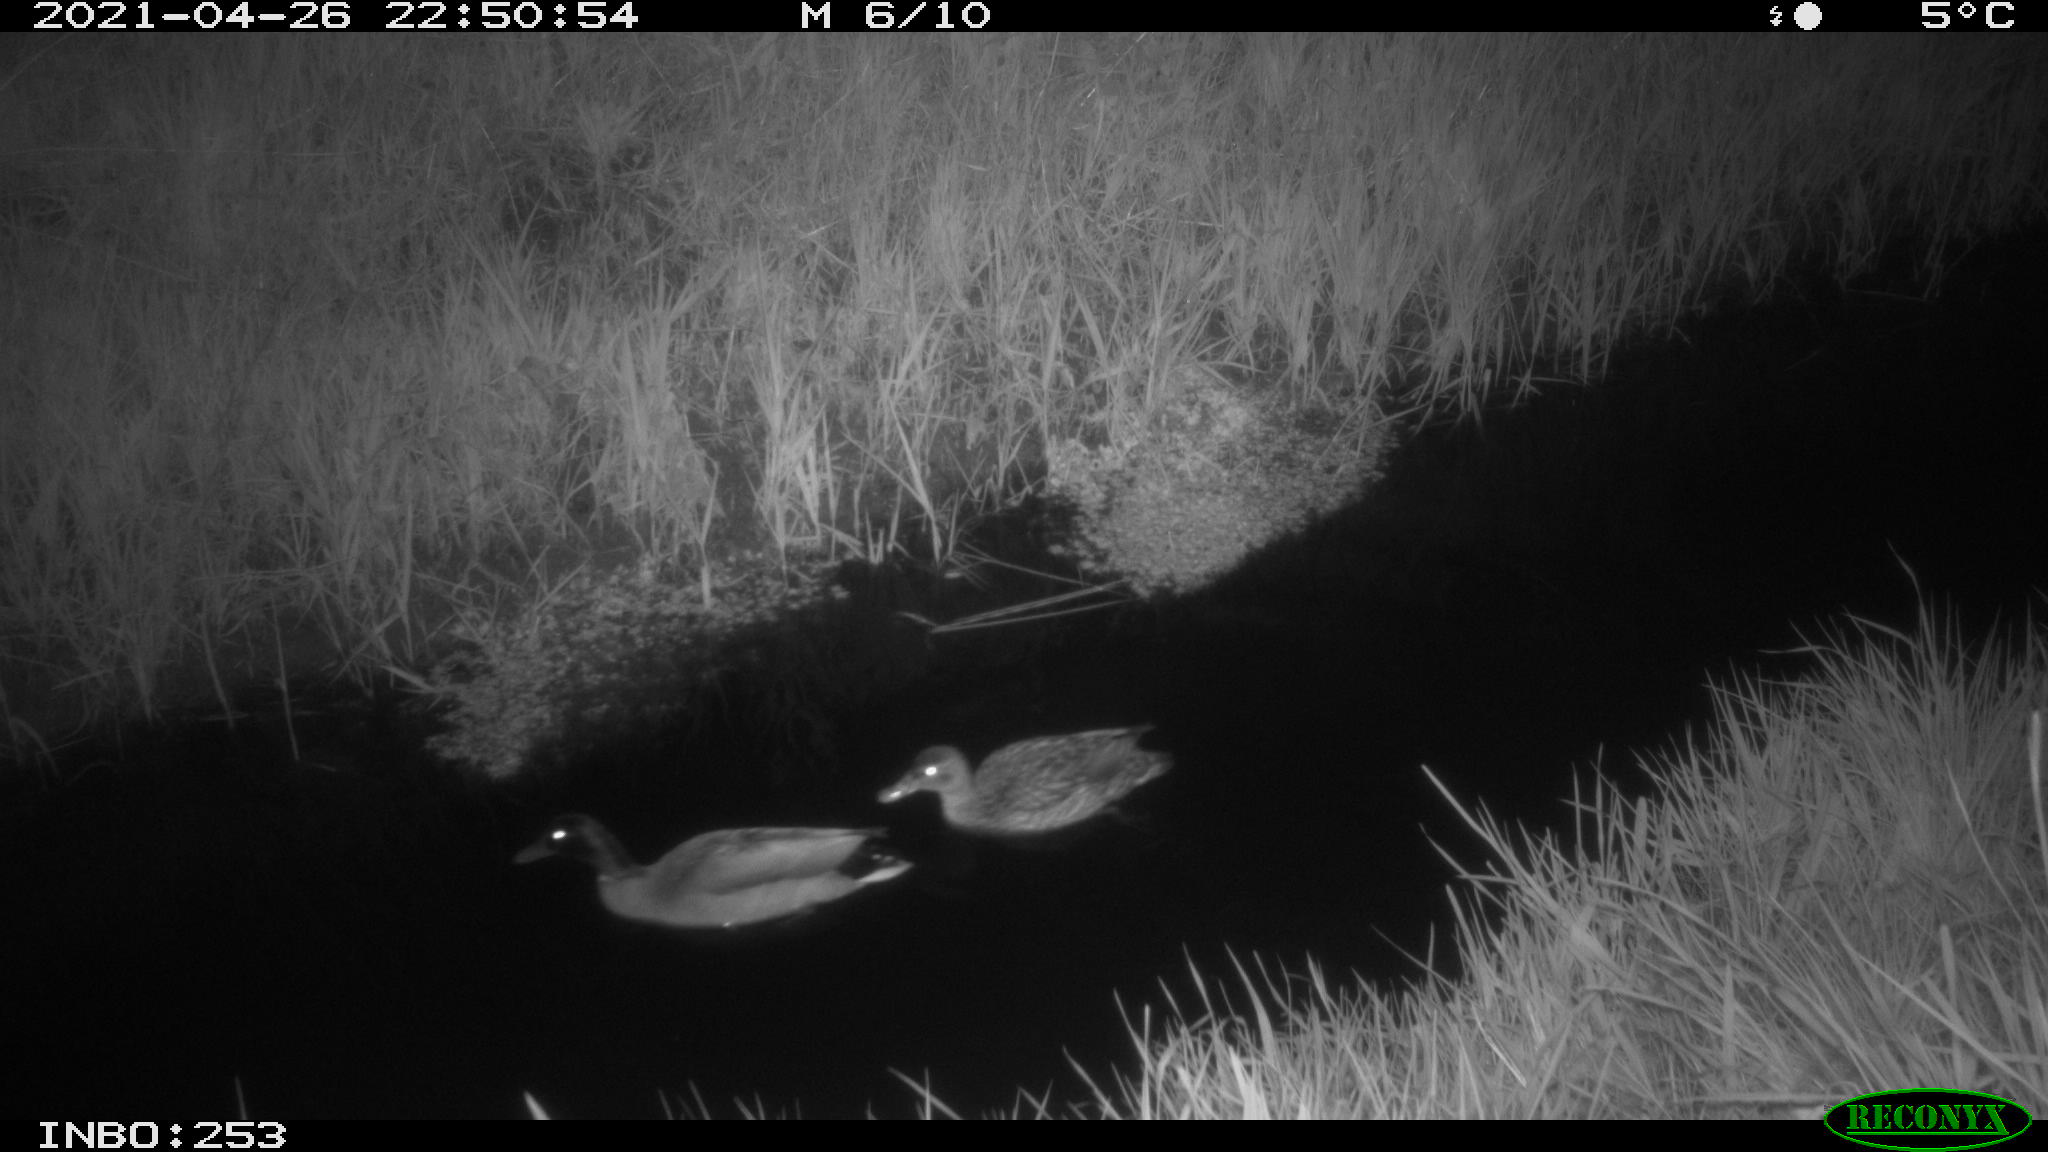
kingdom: Animalia
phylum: Chordata
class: Aves
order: Anseriformes
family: Anatidae
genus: Anas
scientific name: Anas platyrhynchos
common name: Mallard
